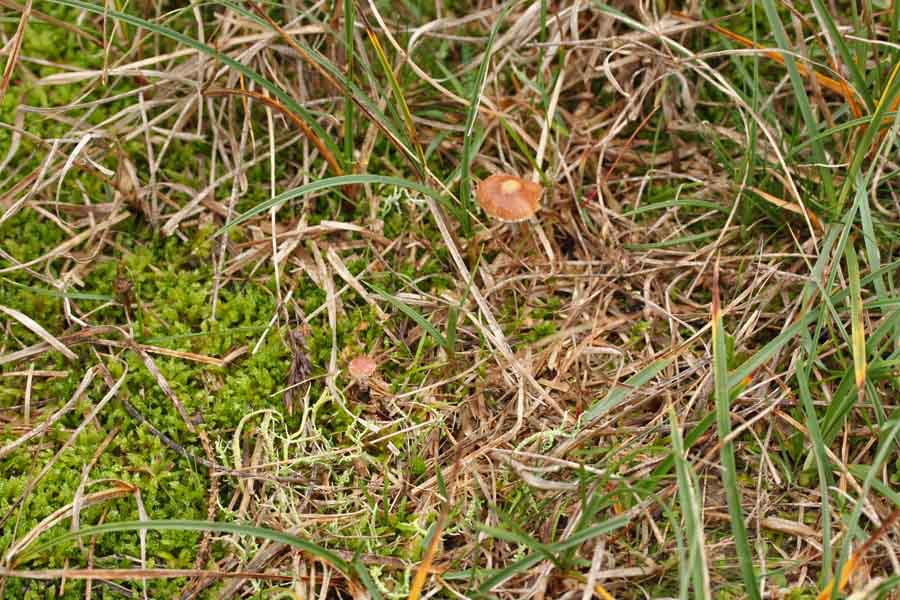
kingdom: Fungi
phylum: Basidiomycota
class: Agaricomycetes
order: Agaricales
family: Strophariaceae
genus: Deconica
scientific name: Deconica crobula
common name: træflis-stråhat
